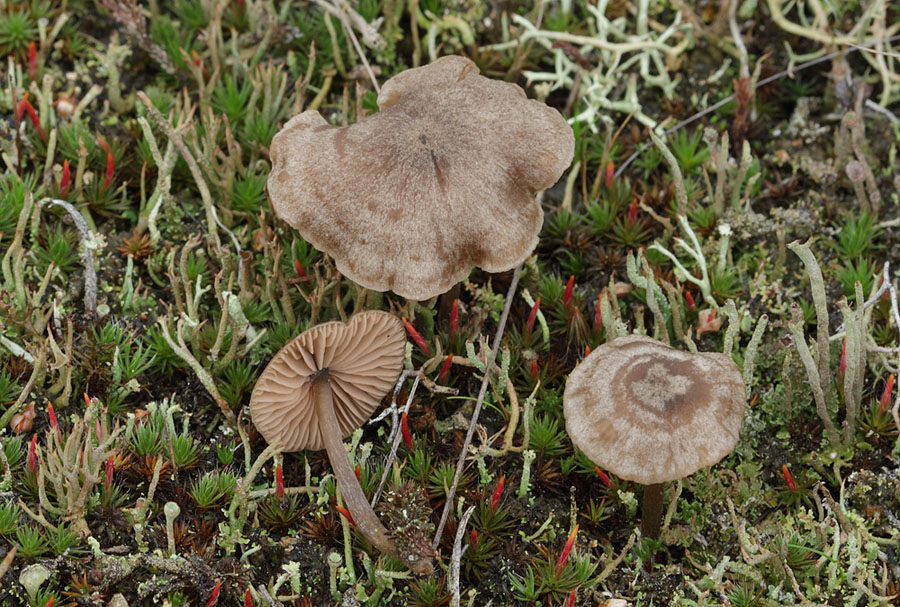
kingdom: Fungi
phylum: Basidiomycota
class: Agaricomycetes
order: Agaricales
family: Entolomataceae
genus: Entoloma
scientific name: Entoloma fernandae
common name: filtet rødblad
